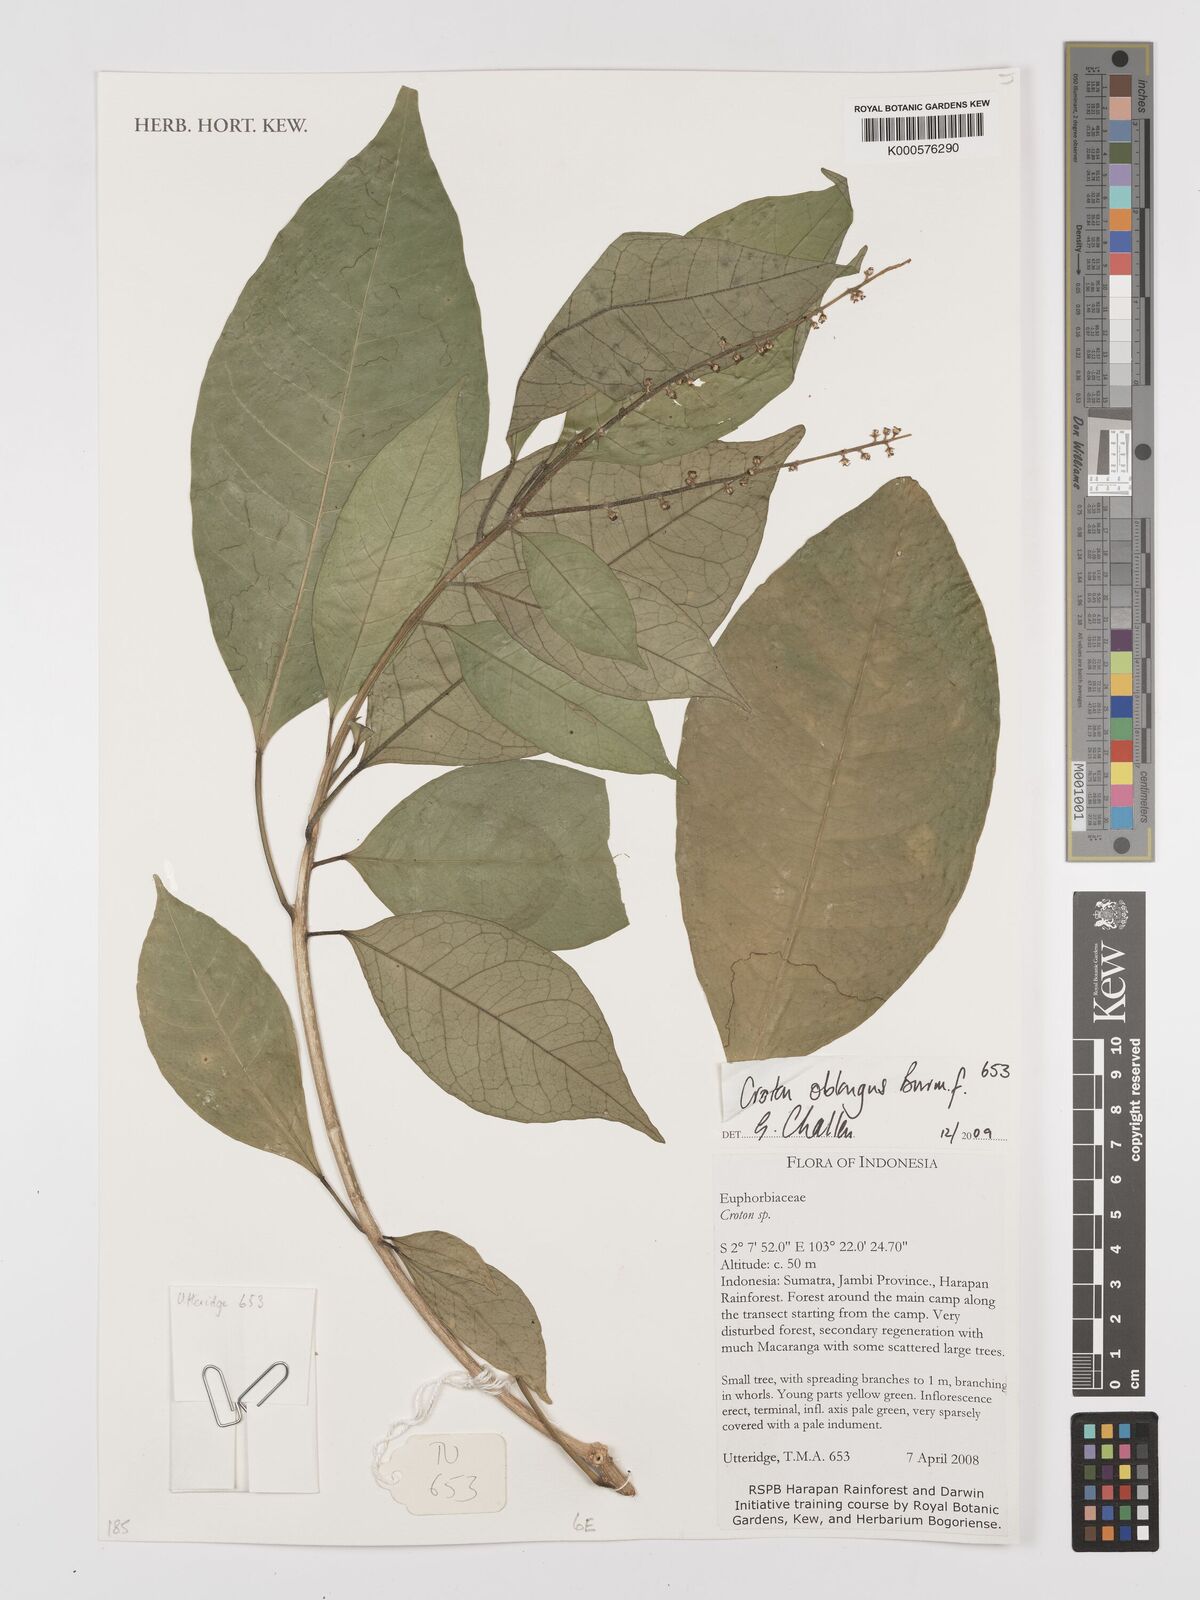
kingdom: Plantae
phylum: Tracheophyta
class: Magnoliopsida
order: Malpighiales
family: Euphorbiaceae
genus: Croton
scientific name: Croton oblongus
